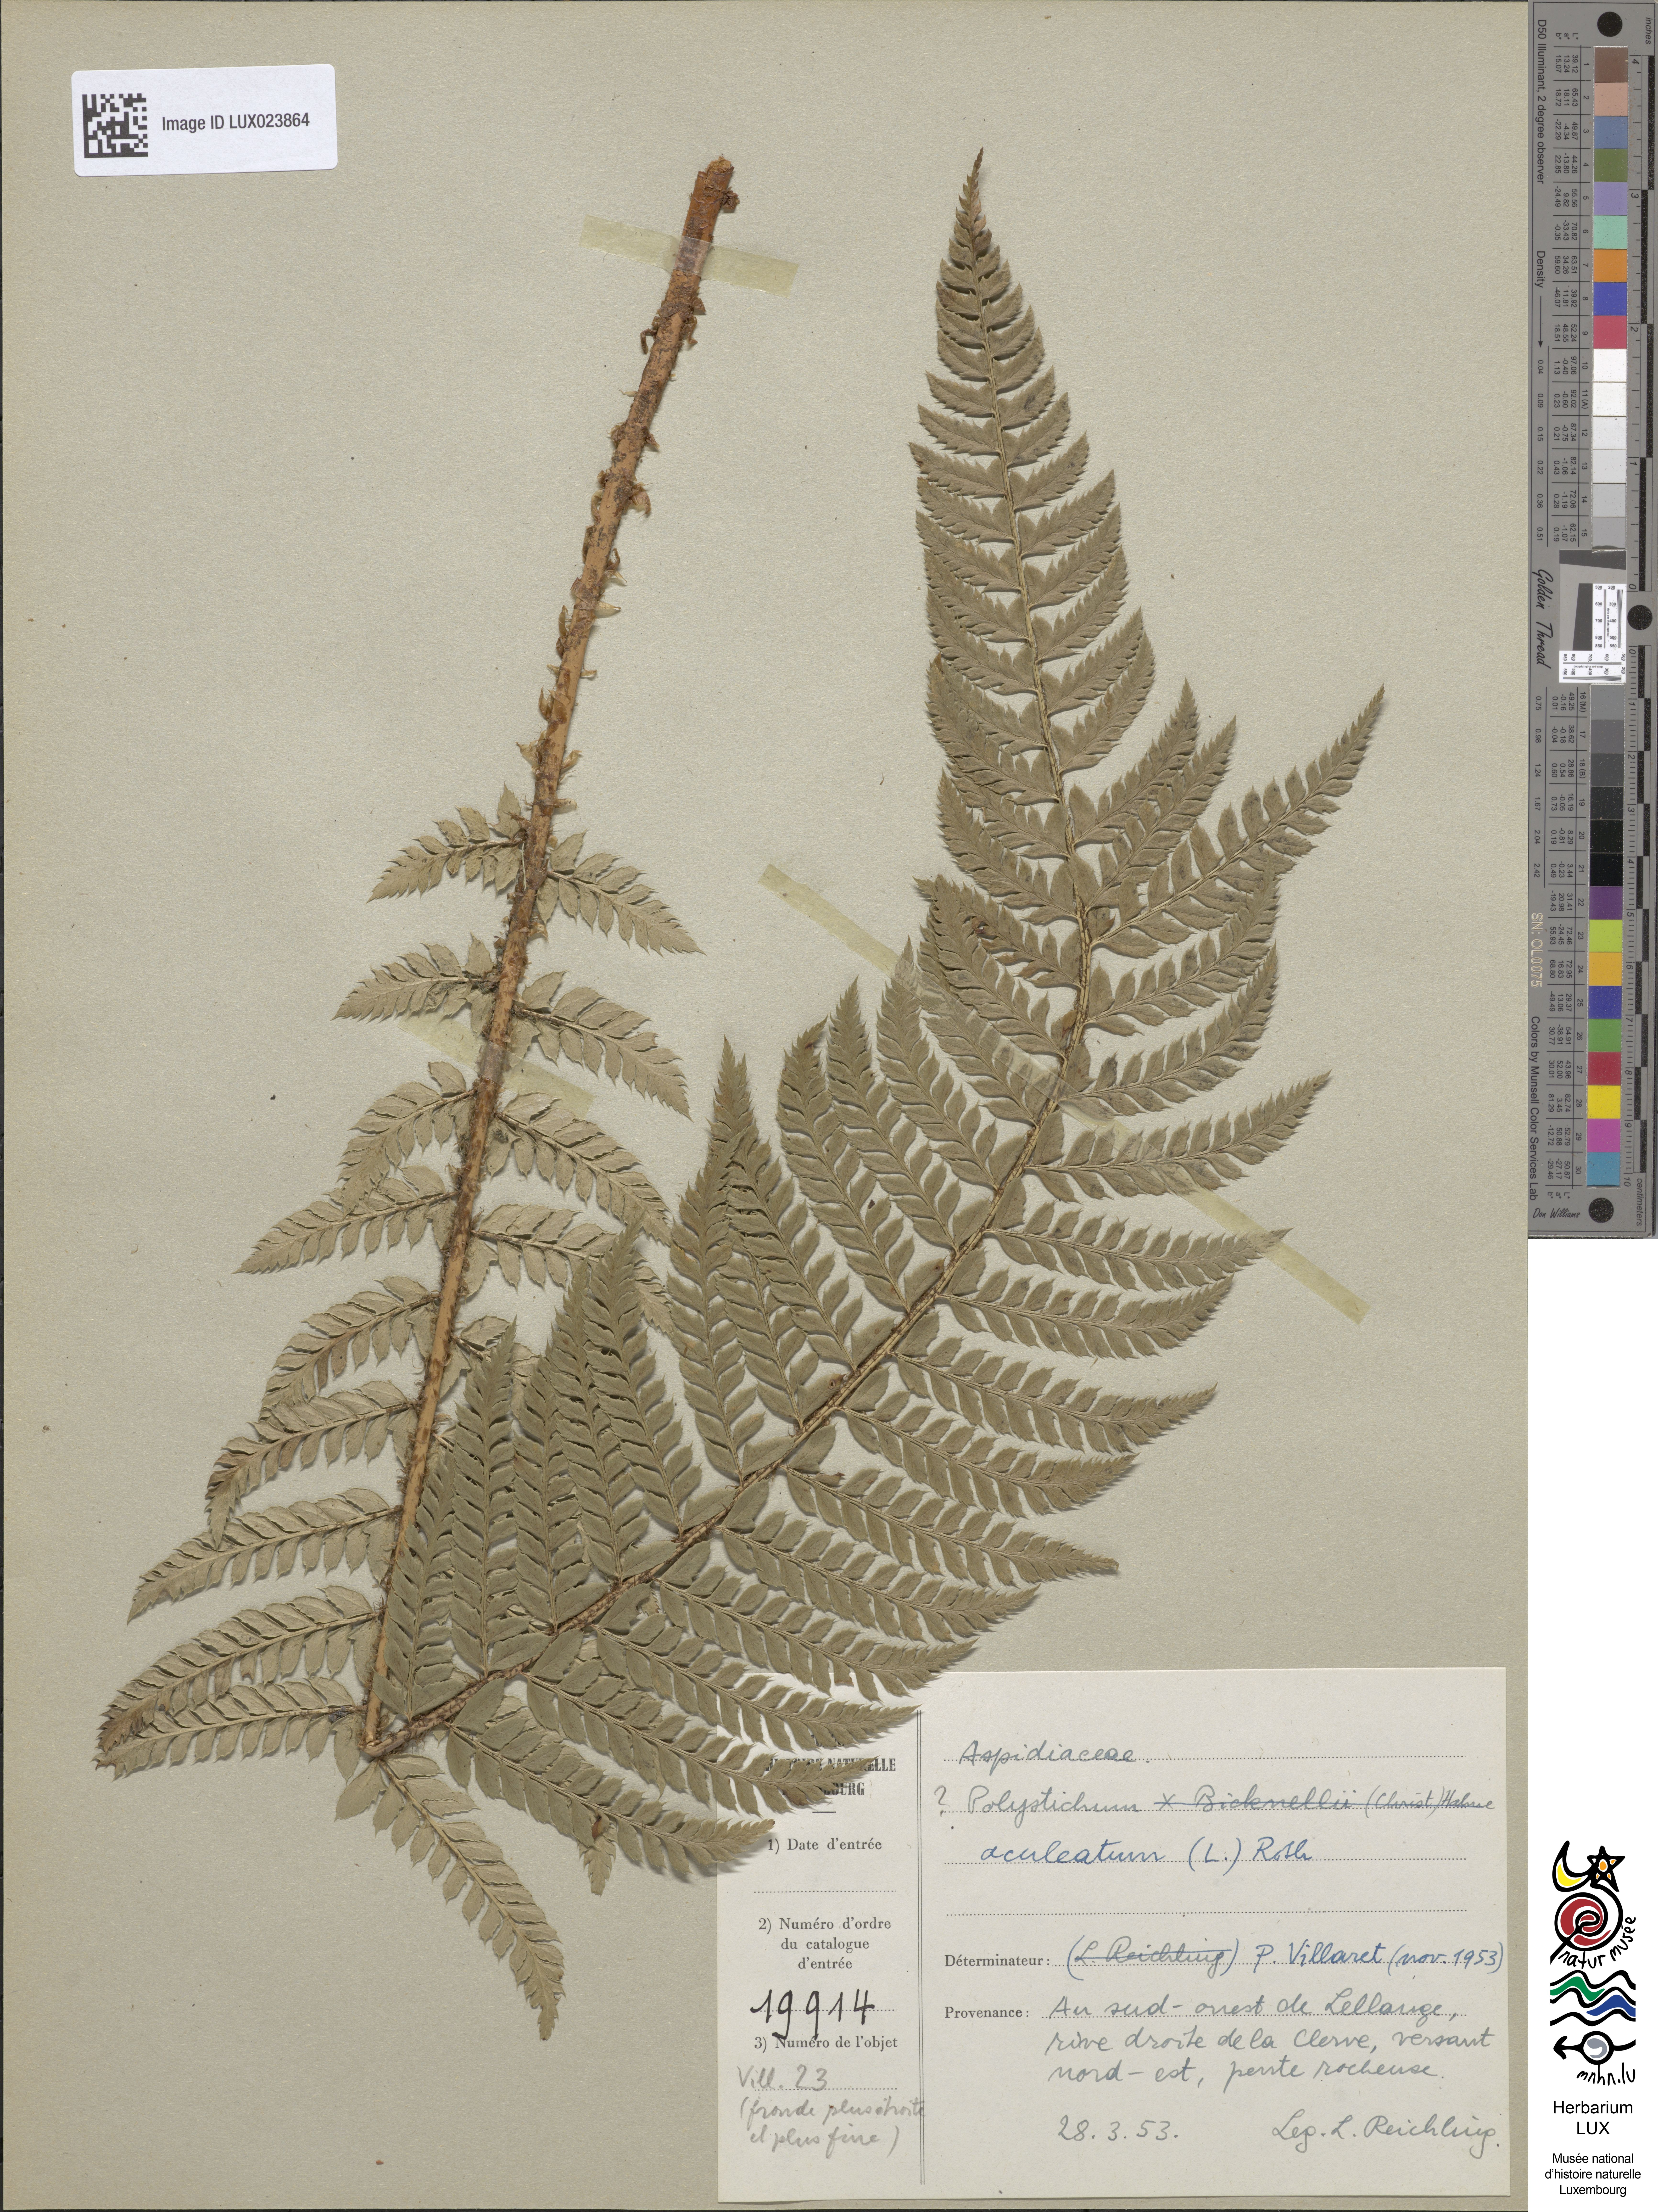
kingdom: Plantae
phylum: Tracheophyta
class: Polypodiopsida
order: Polypodiales
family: Dryopteridaceae
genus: Polystichum
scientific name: Polystichum aculeatum
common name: Hard shield-fern
